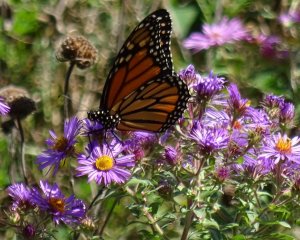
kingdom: Animalia
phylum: Arthropoda
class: Insecta
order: Lepidoptera
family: Nymphalidae
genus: Danaus
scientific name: Danaus plexippus
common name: Monarch
